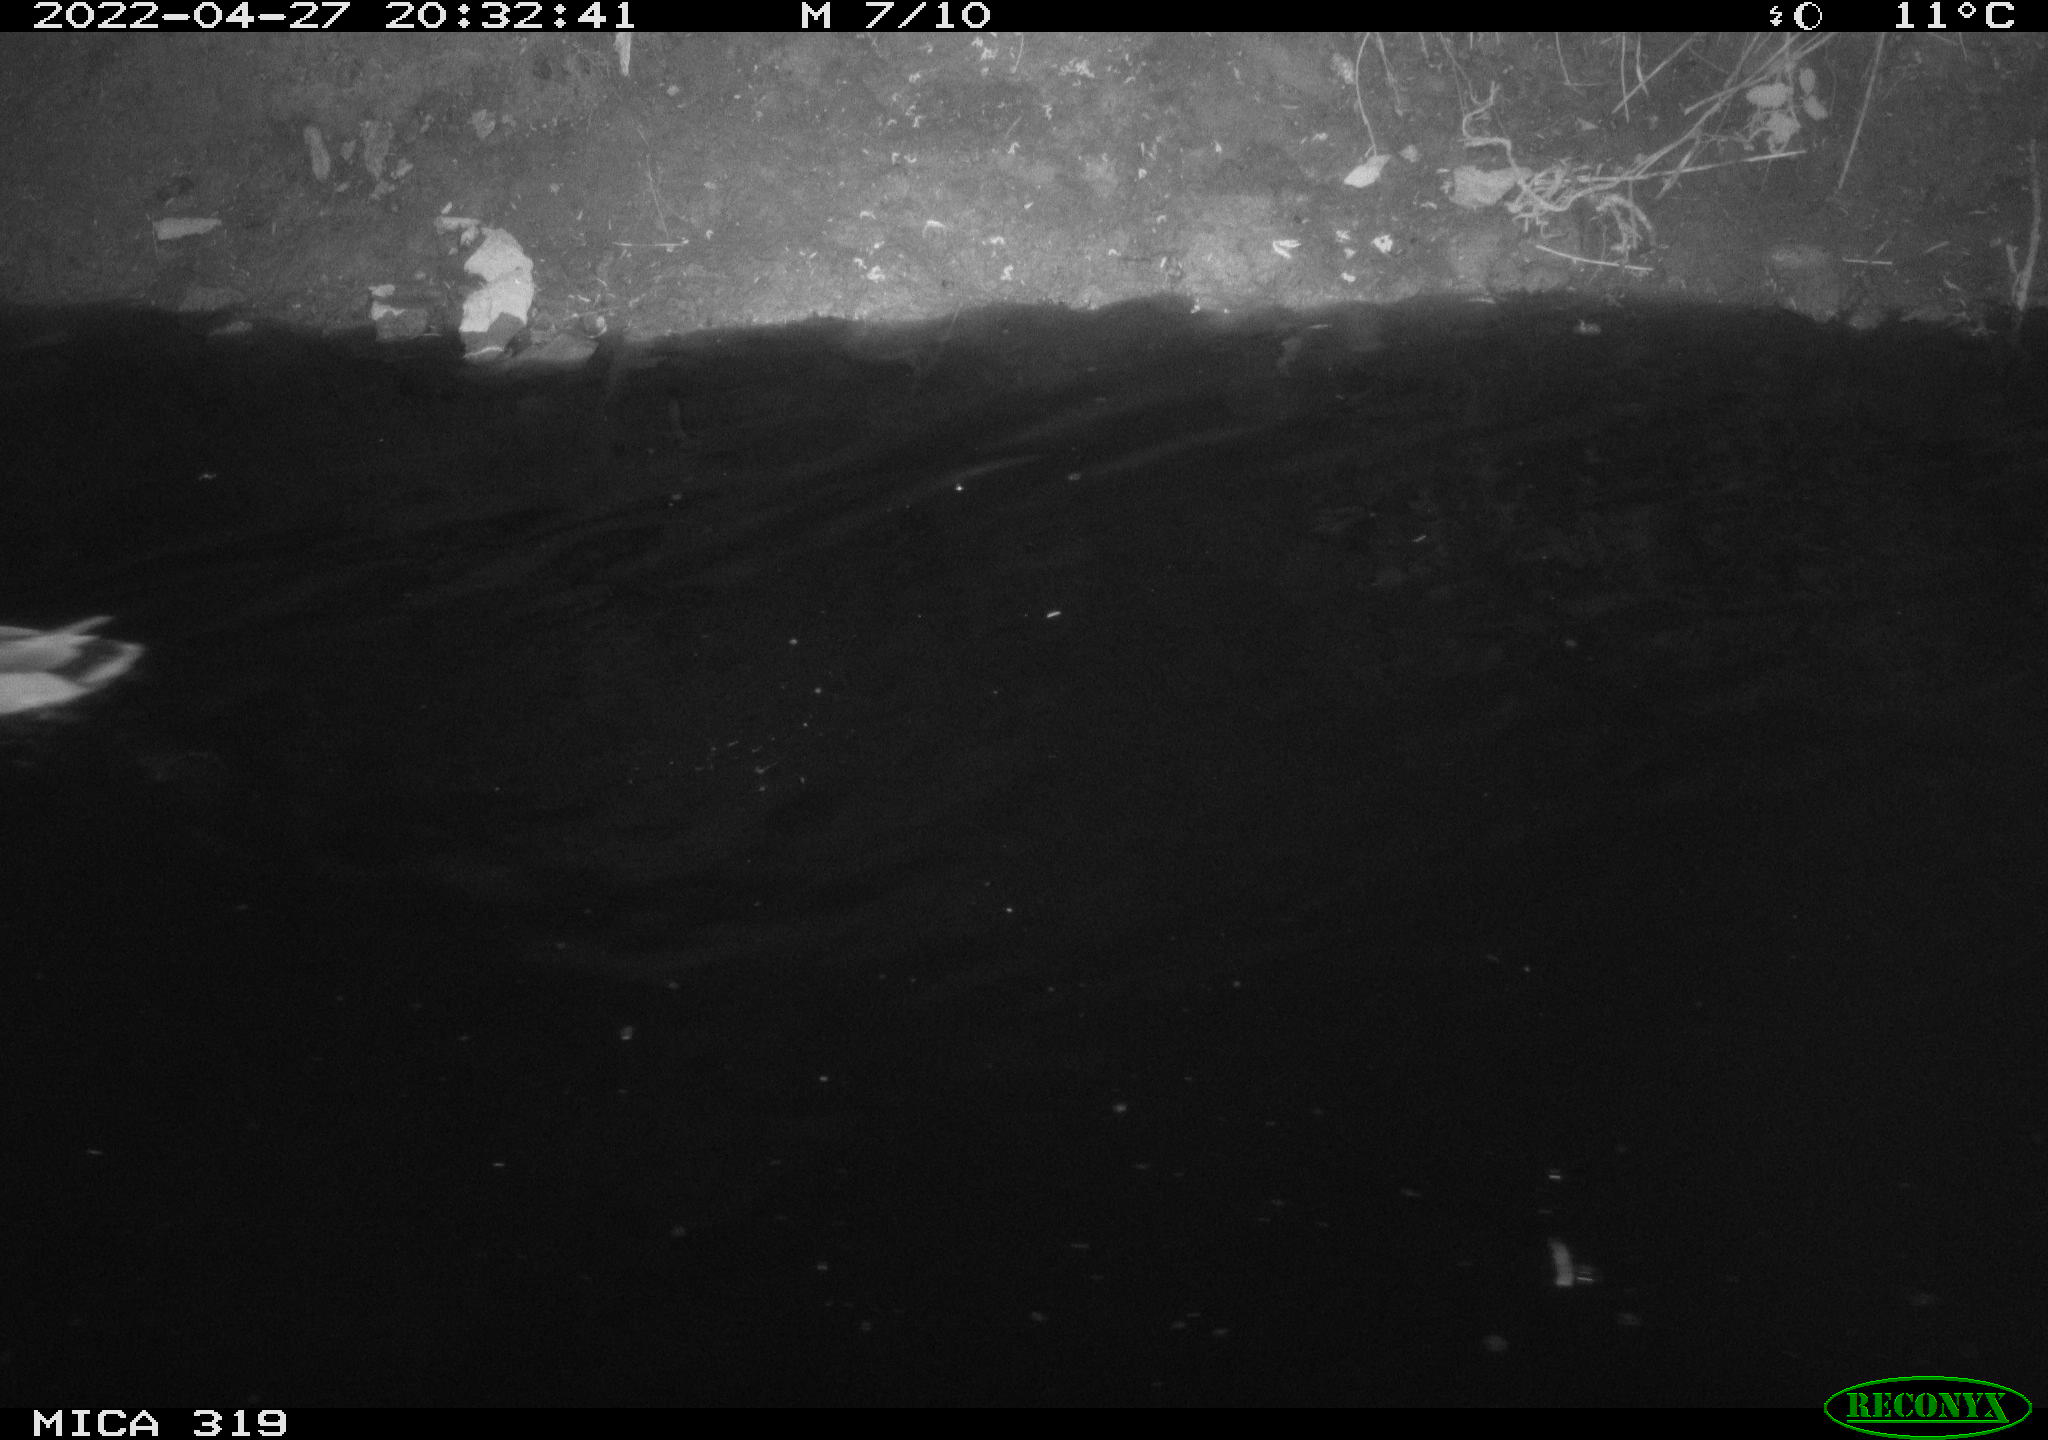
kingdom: Animalia
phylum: Chordata
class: Aves
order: Anseriformes
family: Anatidae
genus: Anas
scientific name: Anas platyrhynchos
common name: Mallard
